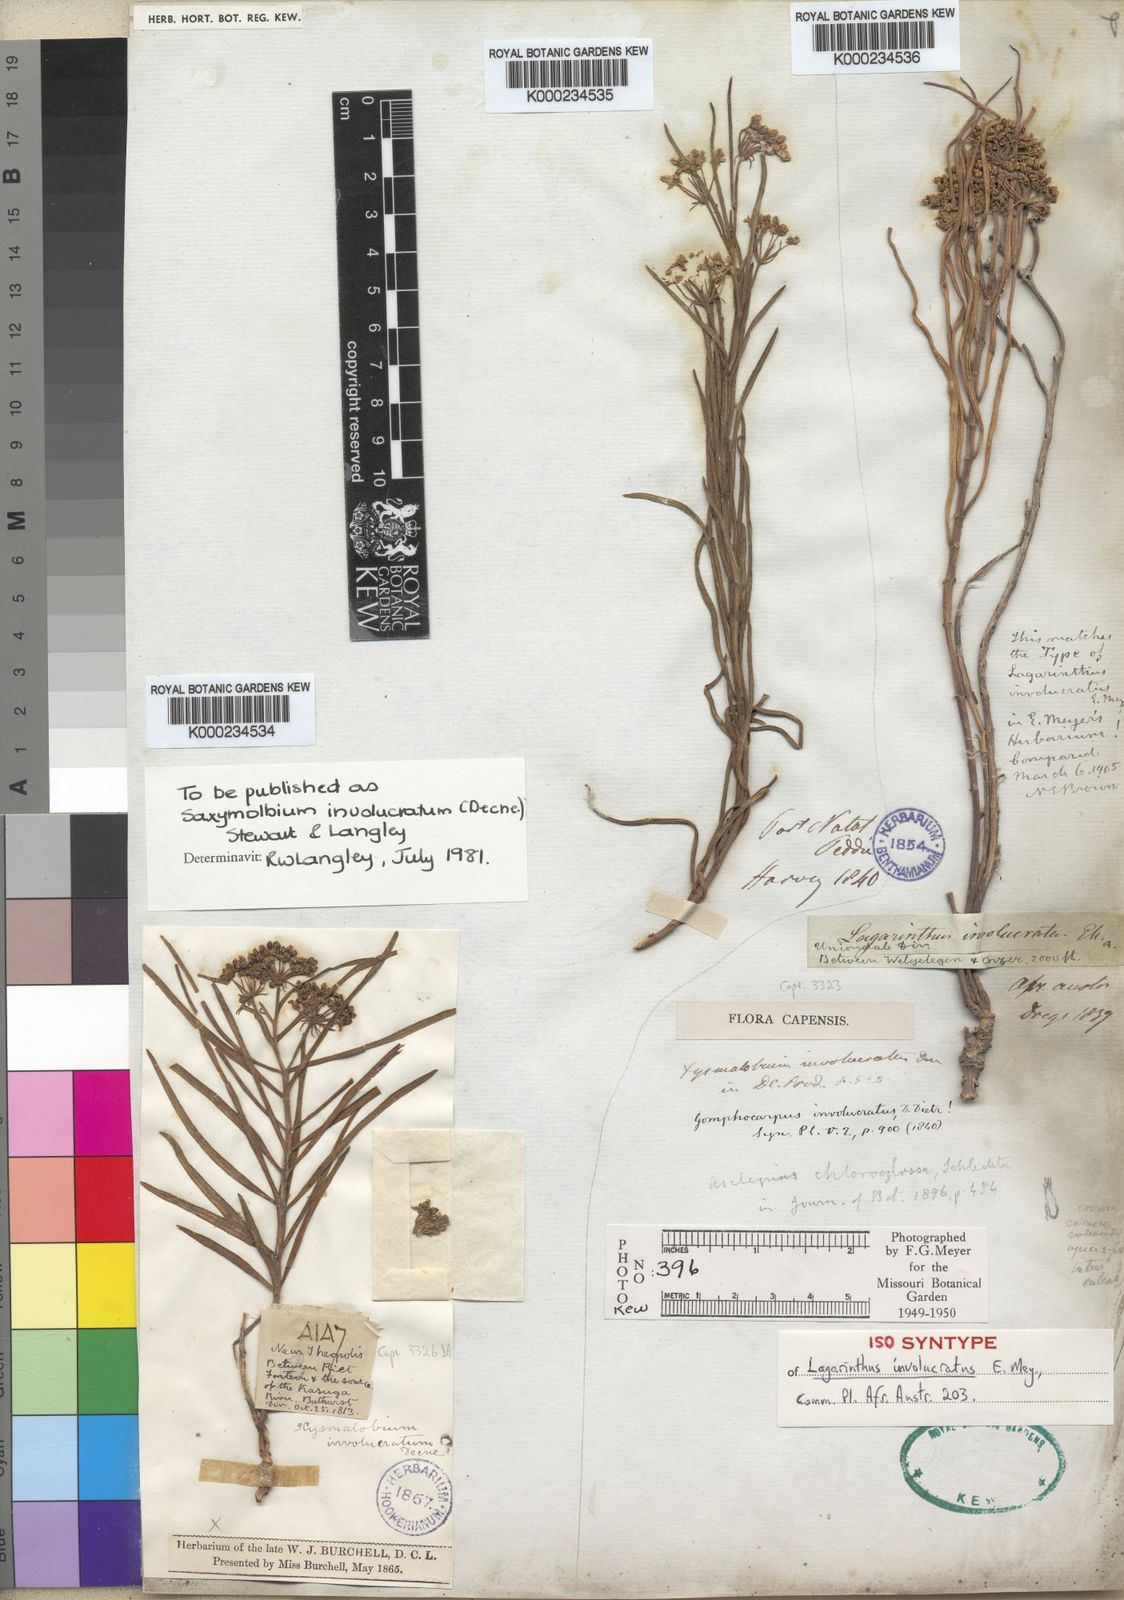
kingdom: Plantae
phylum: Tracheophyta
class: Magnoliopsida
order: Gentianales
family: Apocynaceae
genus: Xysmalobium
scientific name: Xysmalobium involucratum
